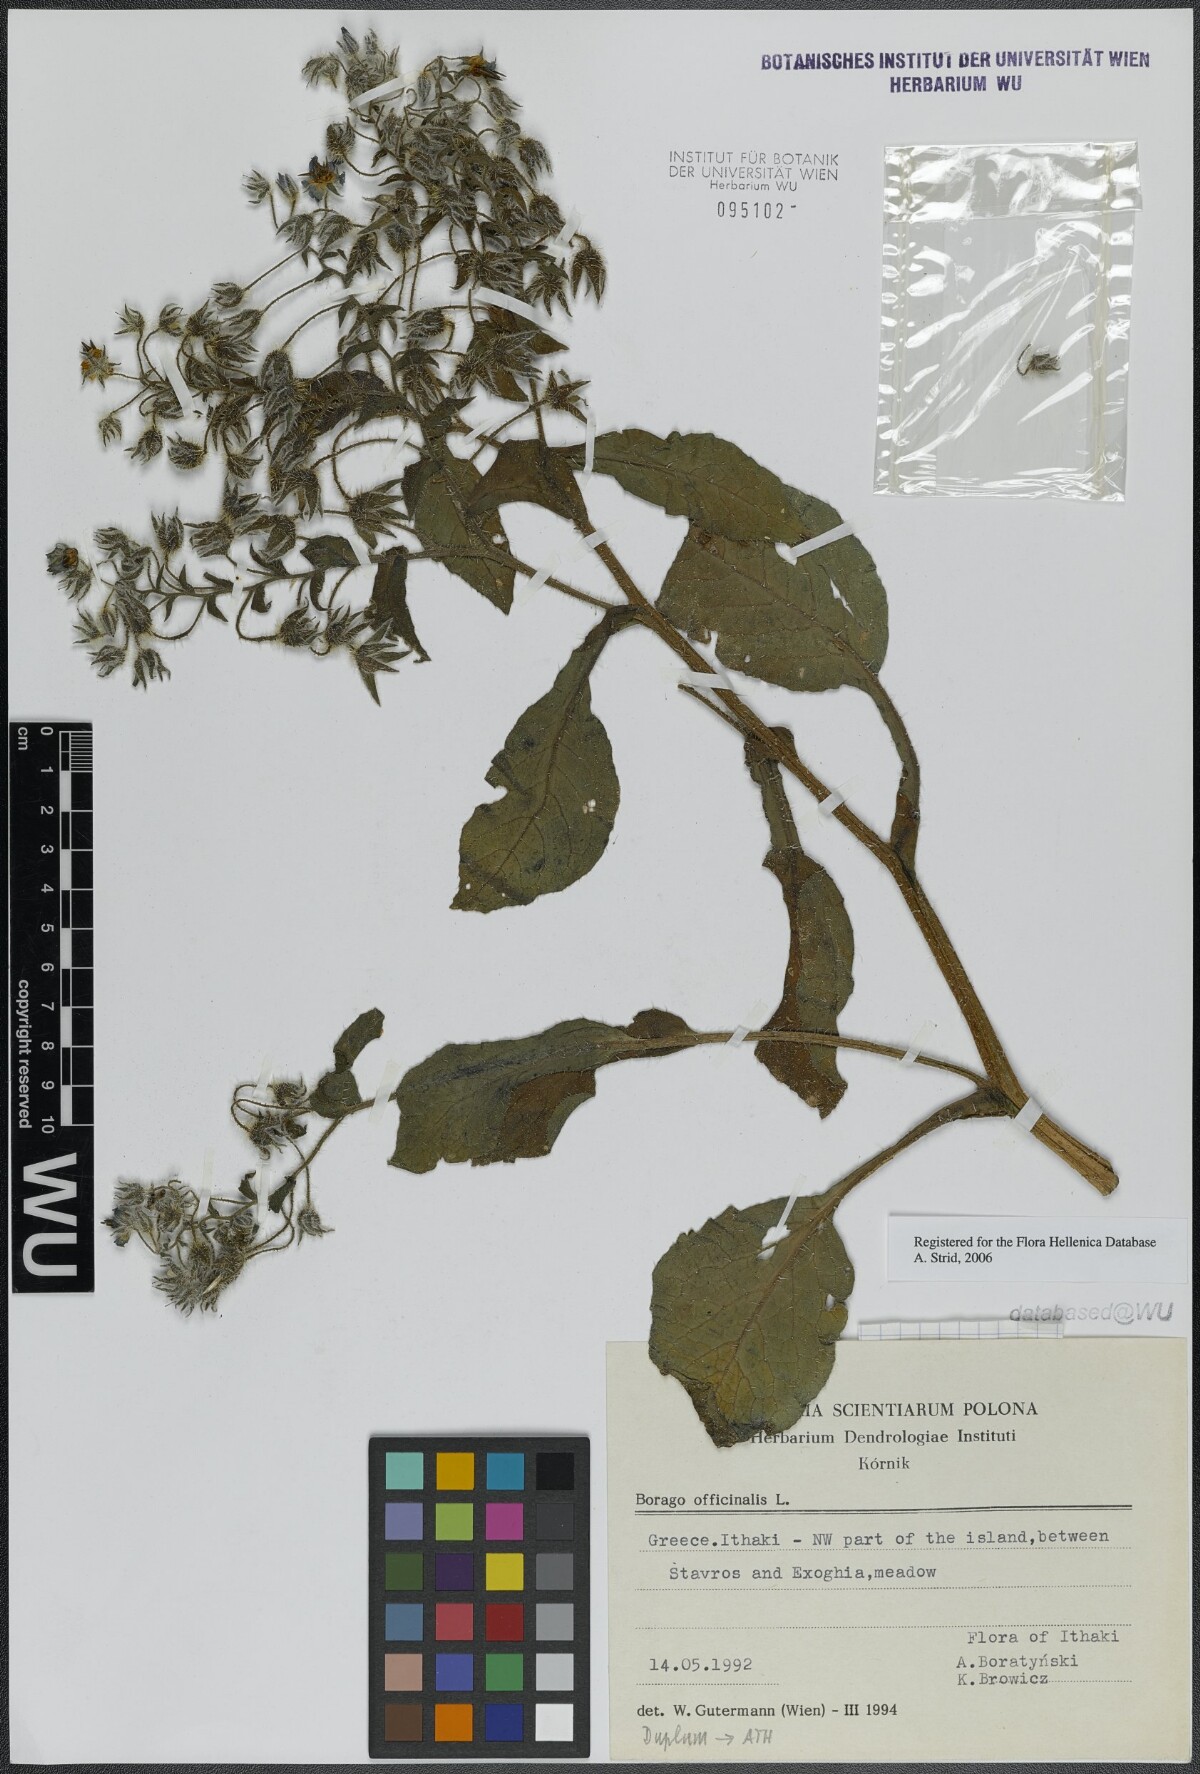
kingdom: Plantae
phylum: Tracheophyta
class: Magnoliopsida
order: Boraginales
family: Boraginaceae
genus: Borago
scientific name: Borago officinalis
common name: Borage
